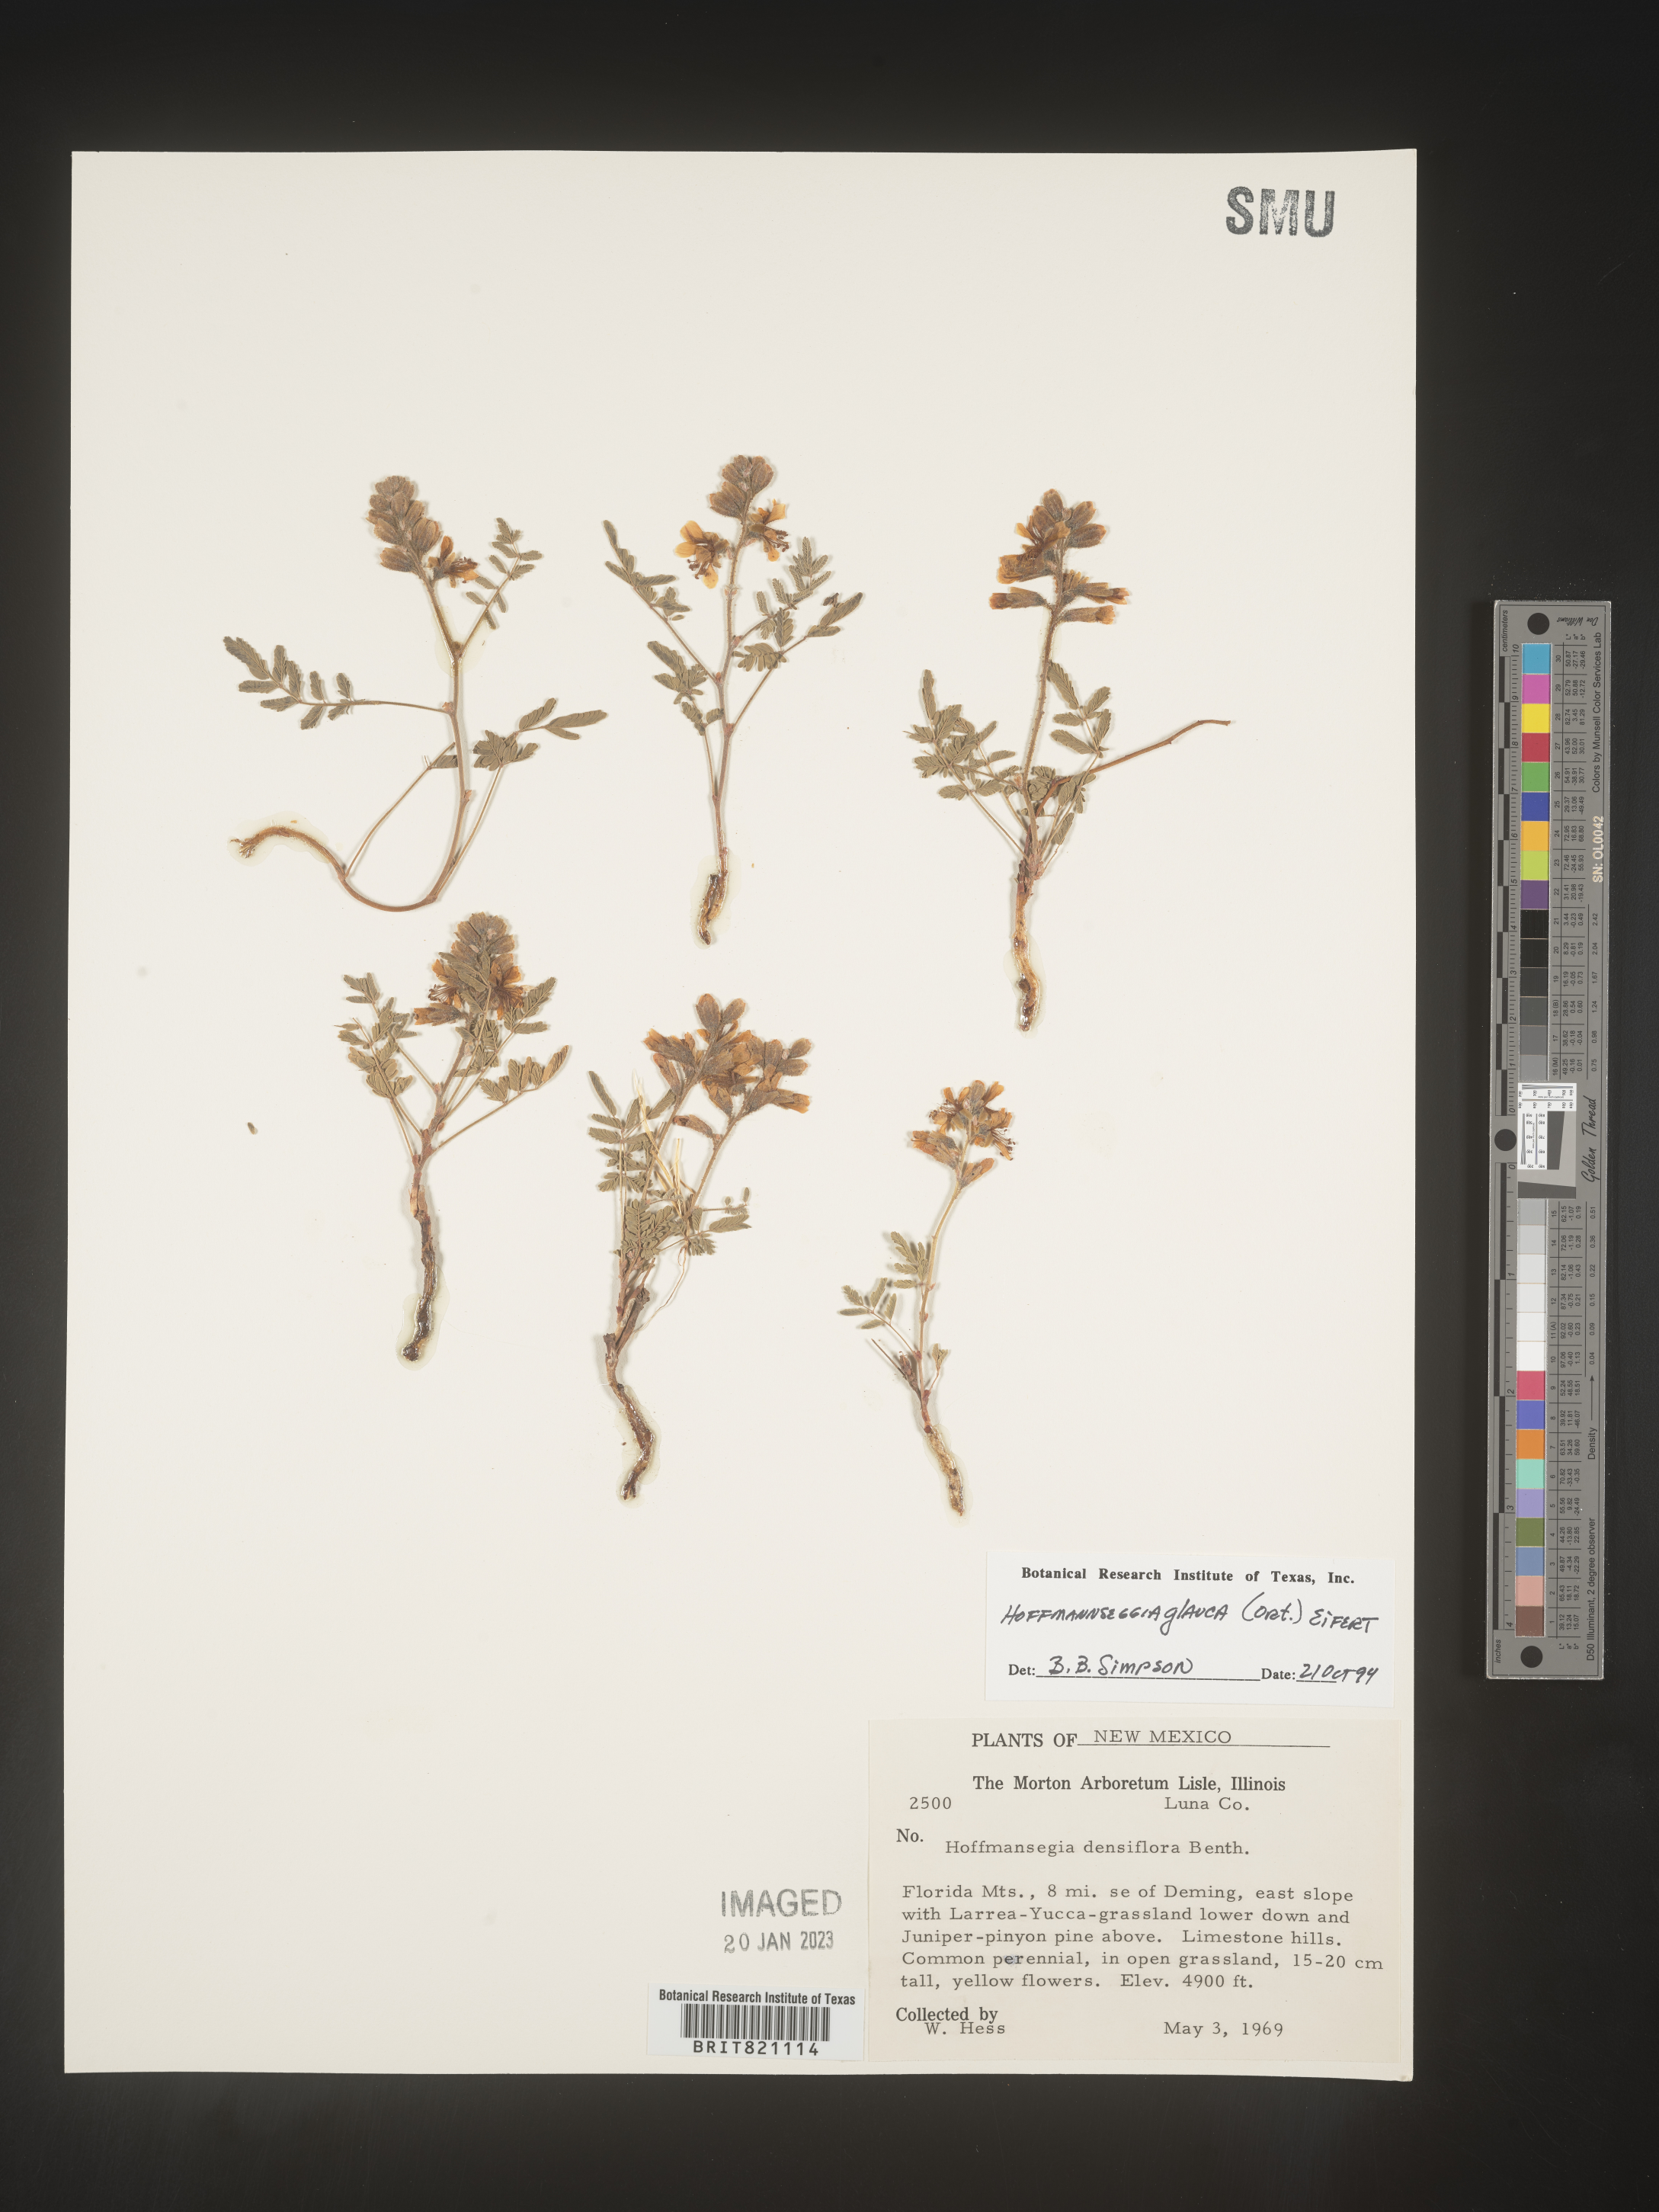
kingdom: Plantae
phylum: Tracheophyta
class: Magnoliopsida
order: Fabales
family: Fabaceae
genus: Hoffmannseggia
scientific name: Hoffmannseggia
